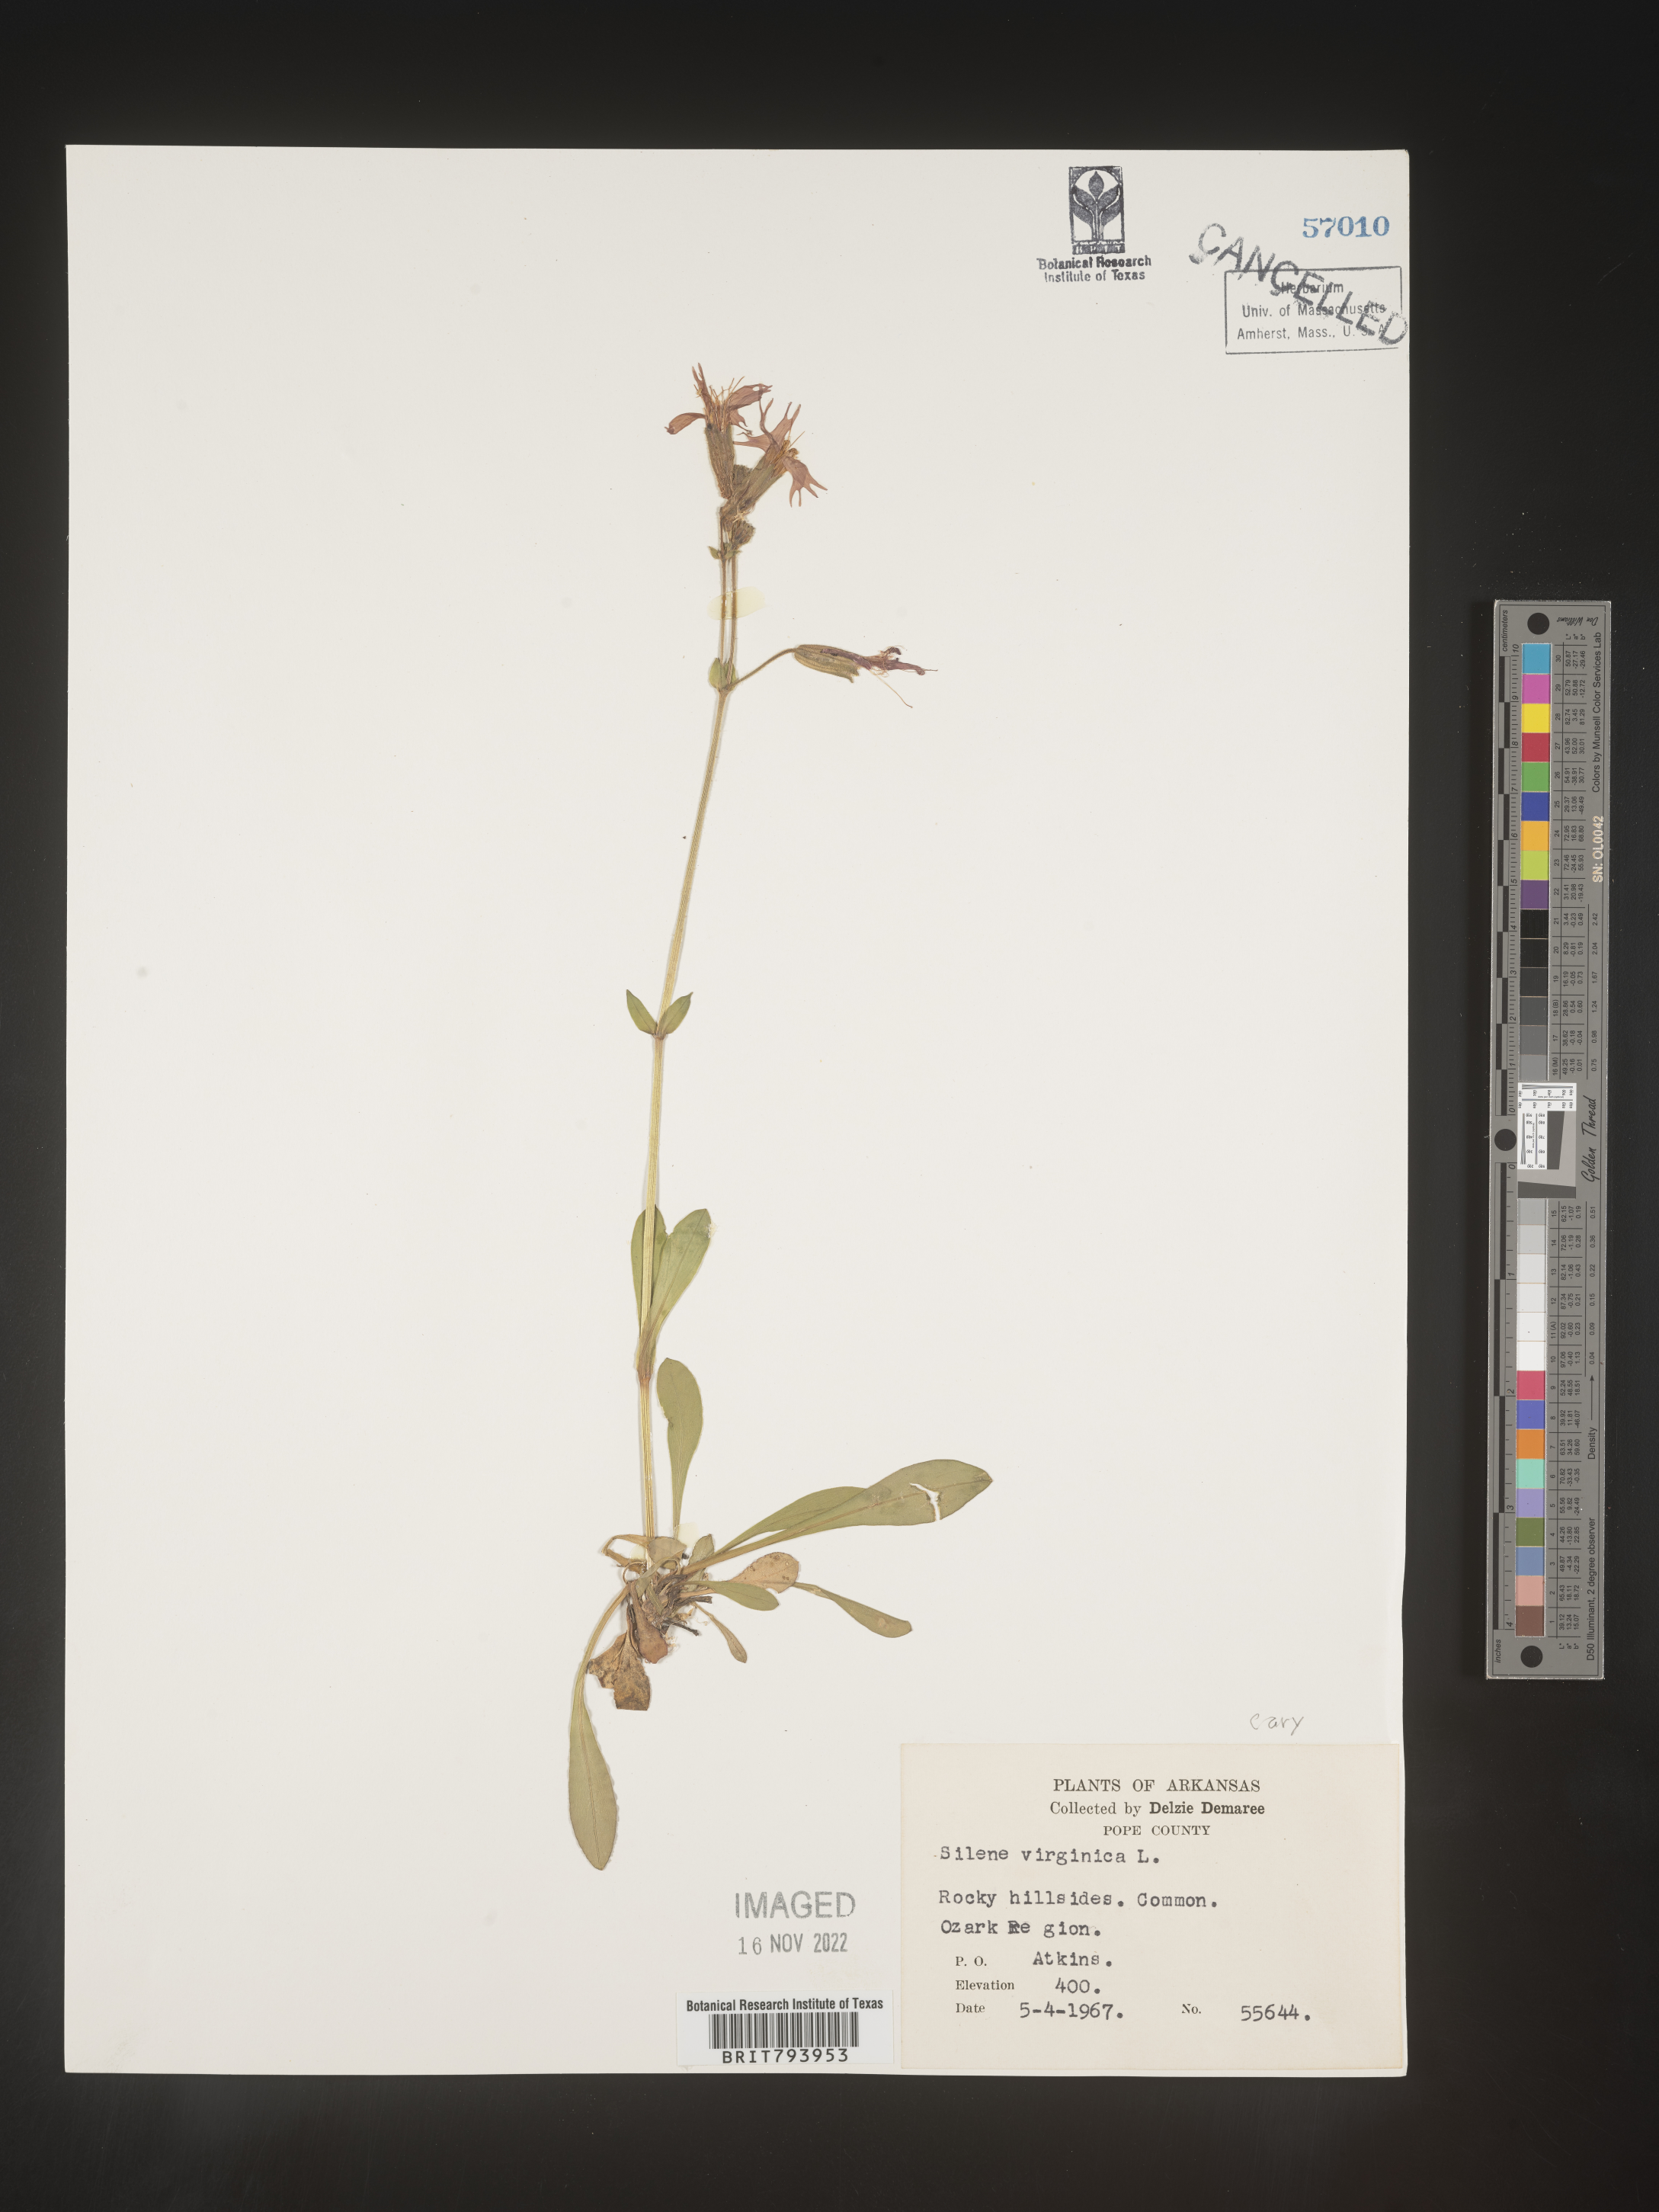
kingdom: Plantae
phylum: Tracheophyta
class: Magnoliopsida
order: Caryophyllales
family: Caryophyllaceae
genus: Silene
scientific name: Silene virginica
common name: Fire-pink
